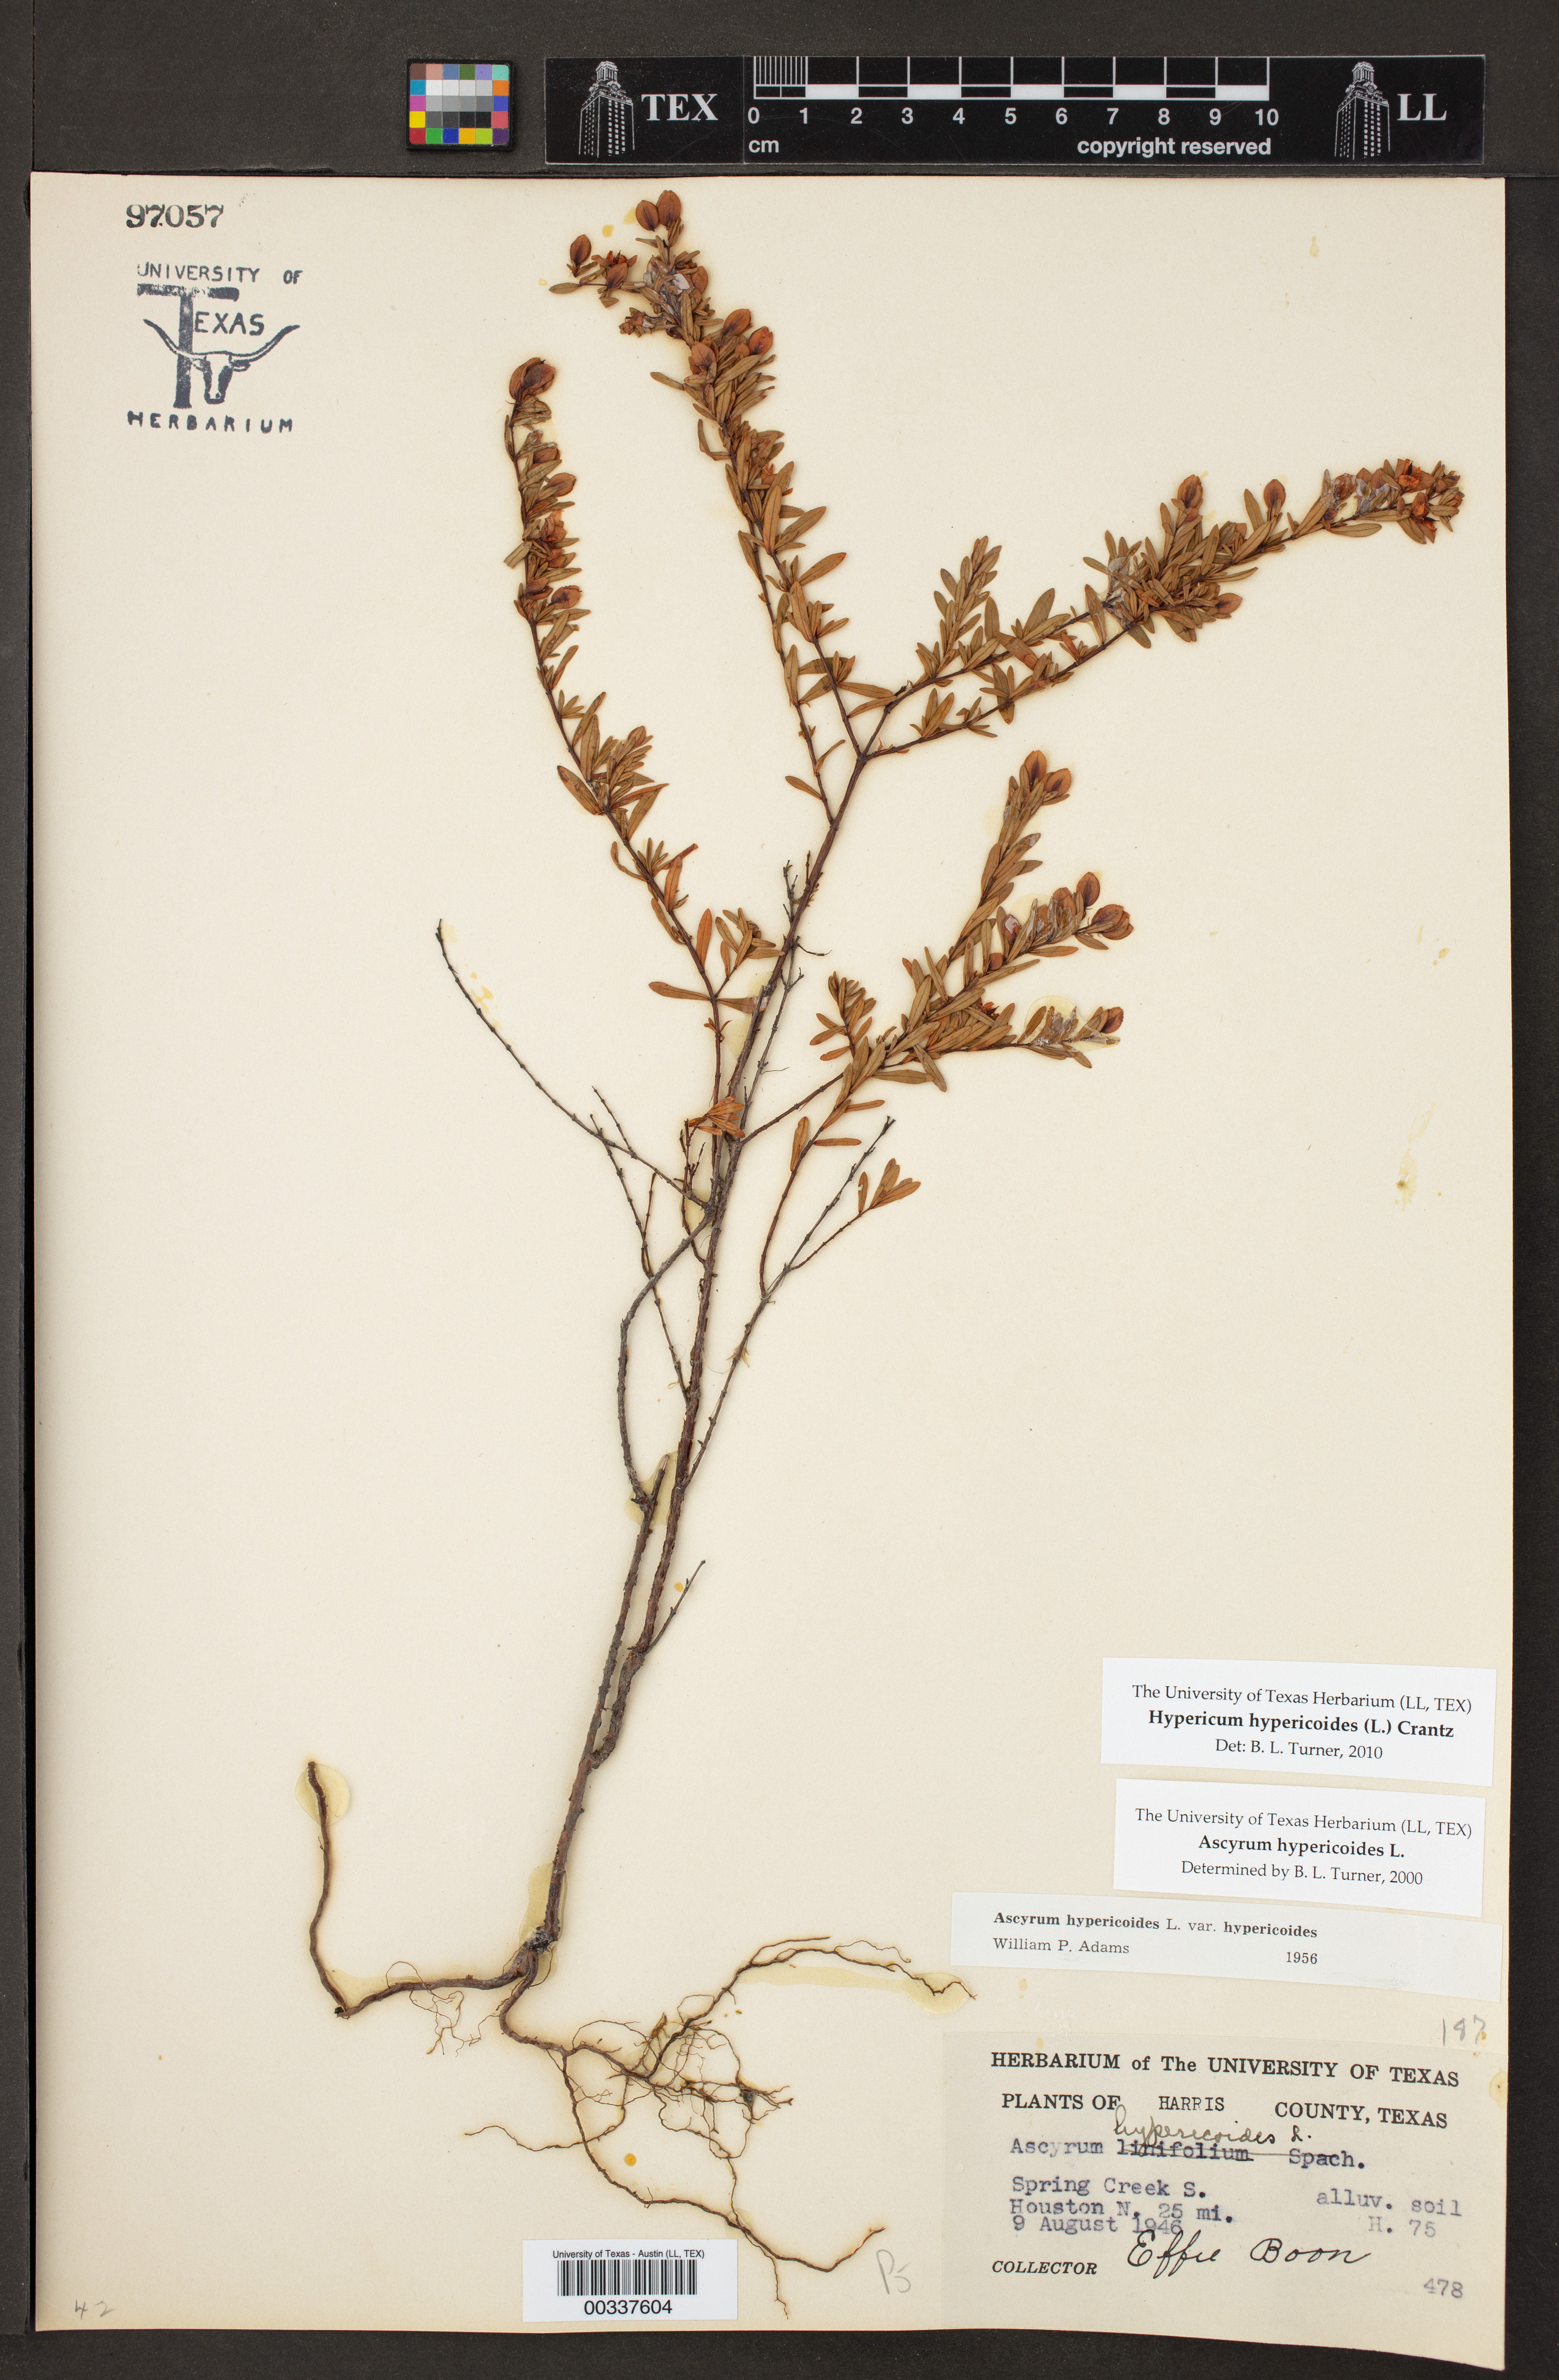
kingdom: Plantae
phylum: Tracheophyta
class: Magnoliopsida
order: Malpighiales
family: Hypericaceae
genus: Hypericum
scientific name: Hypericum hypericoides
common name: St. andrew's cross
